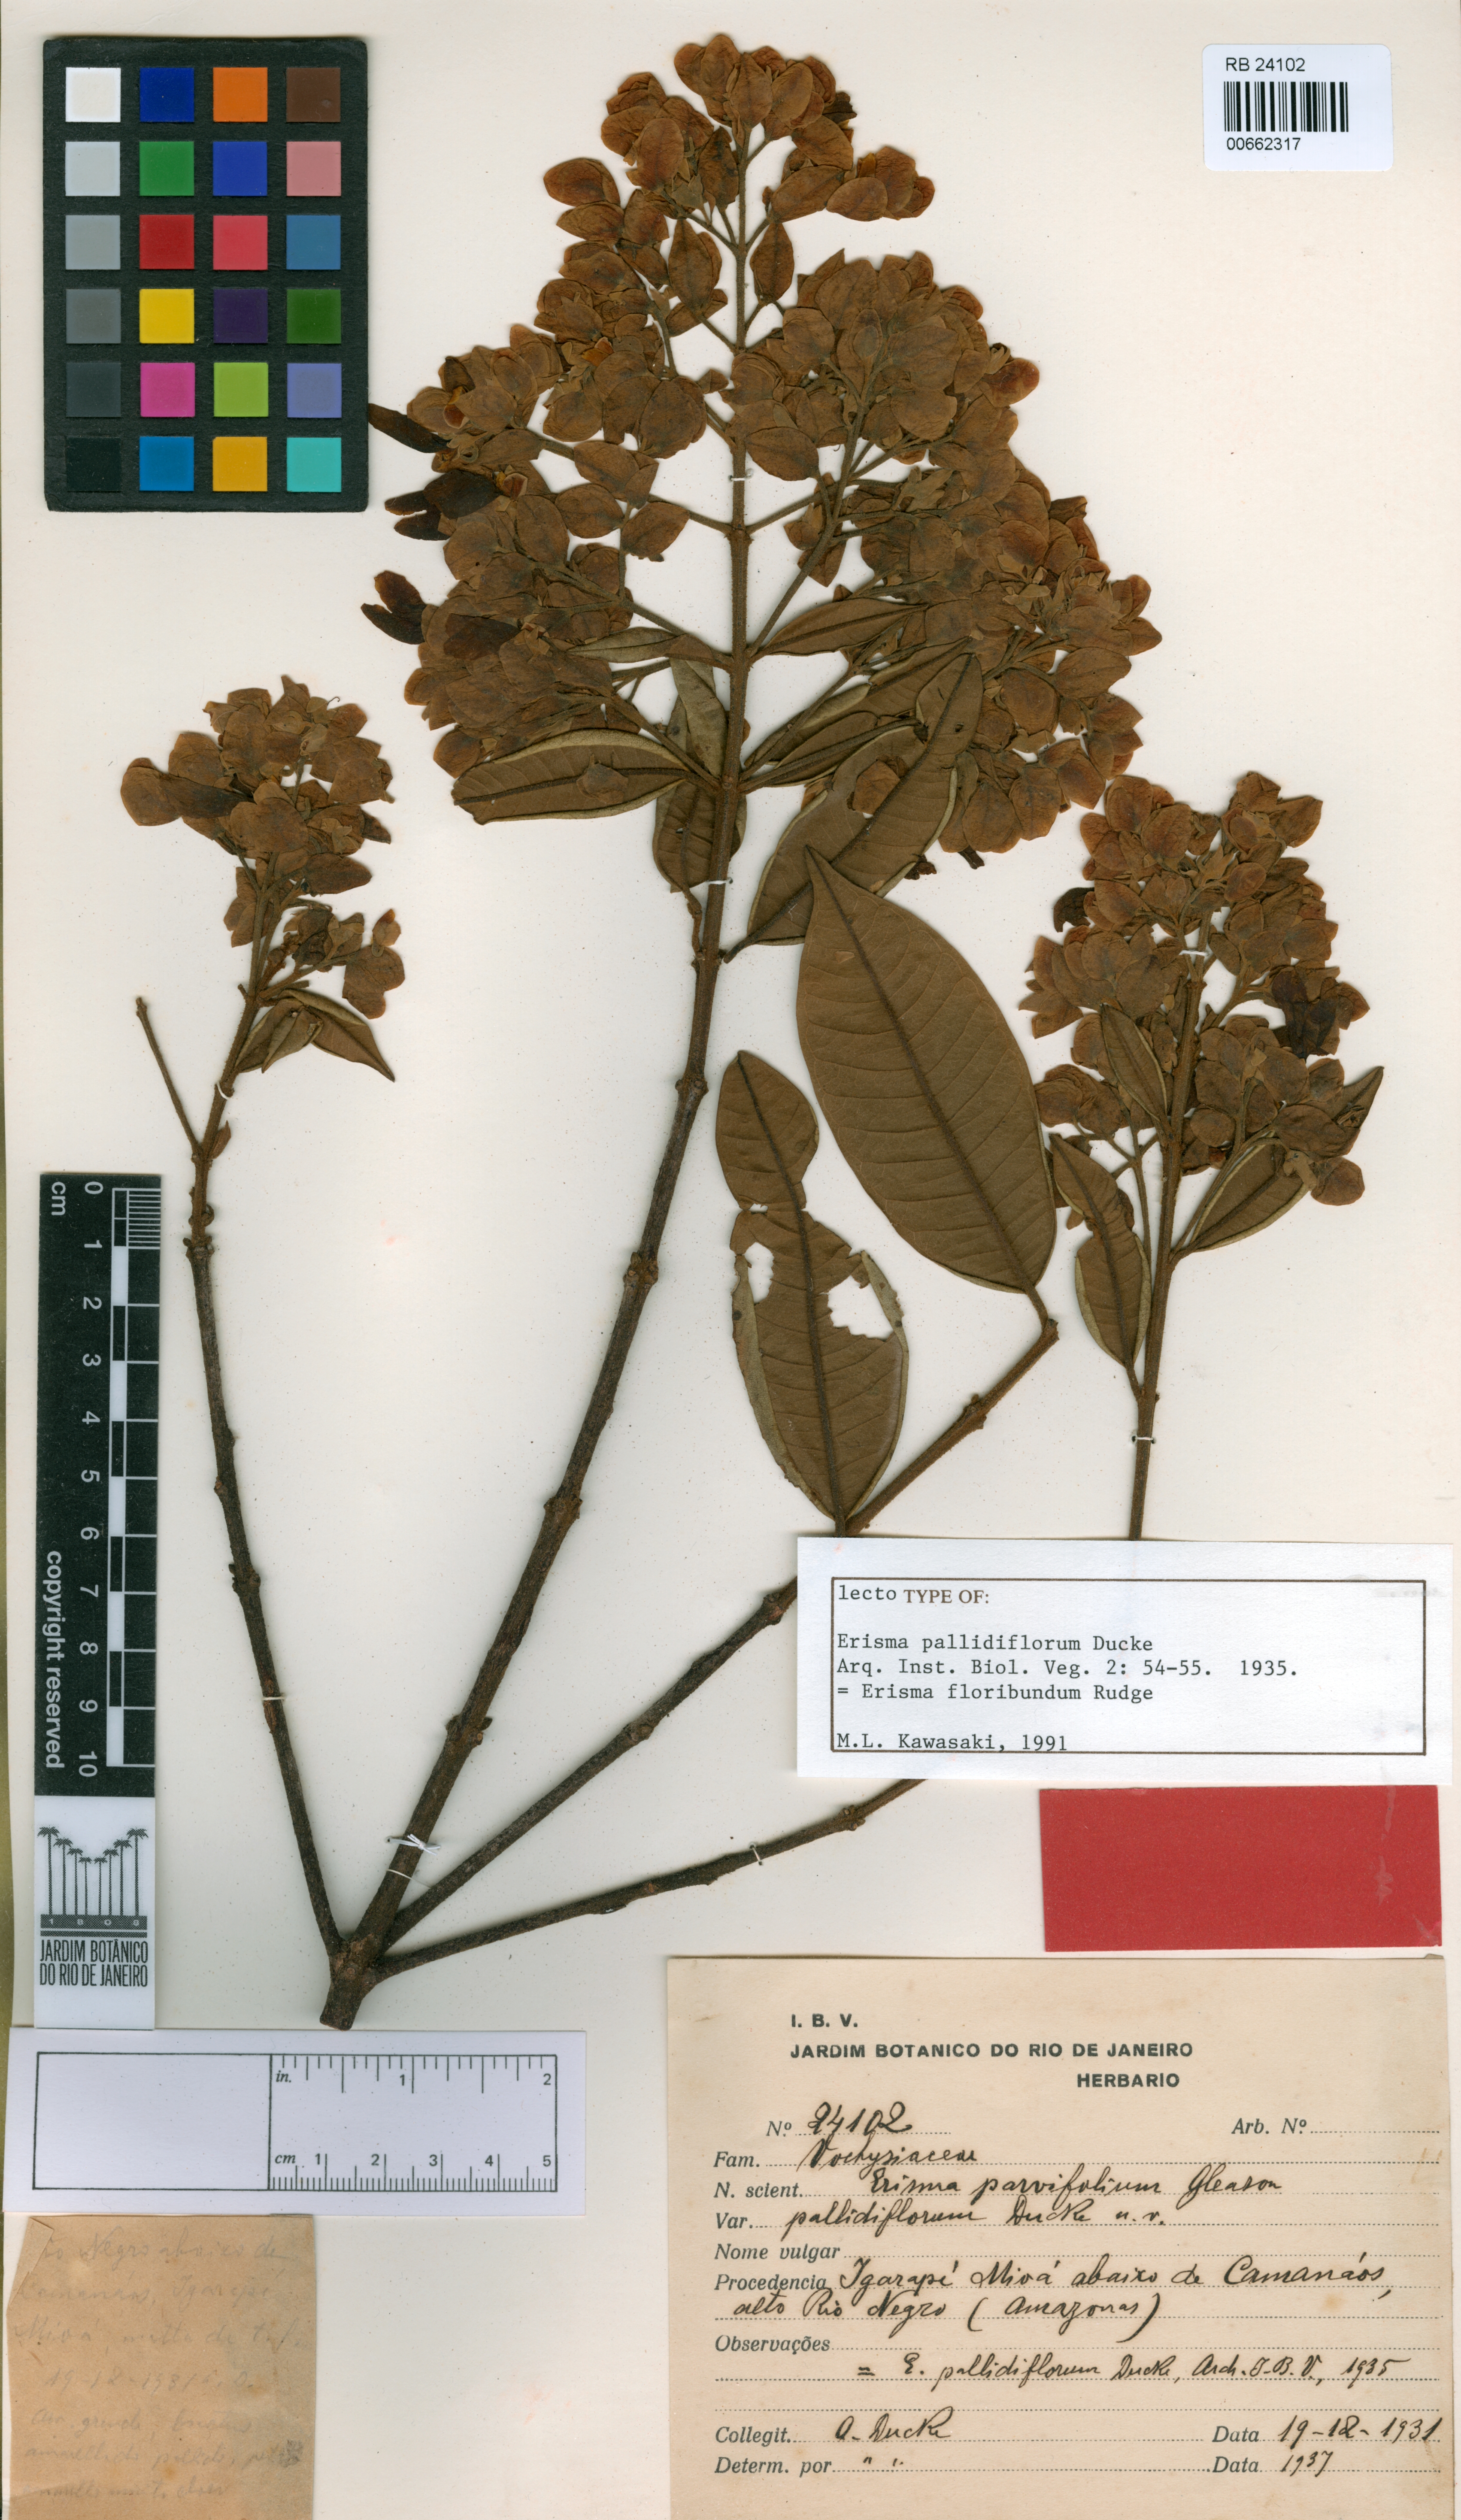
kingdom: Plantae
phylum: Tracheophyta
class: Magnoliopsida
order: Myrtales
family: Vochysiaceae
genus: Erisma
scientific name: Erisma floribundum
